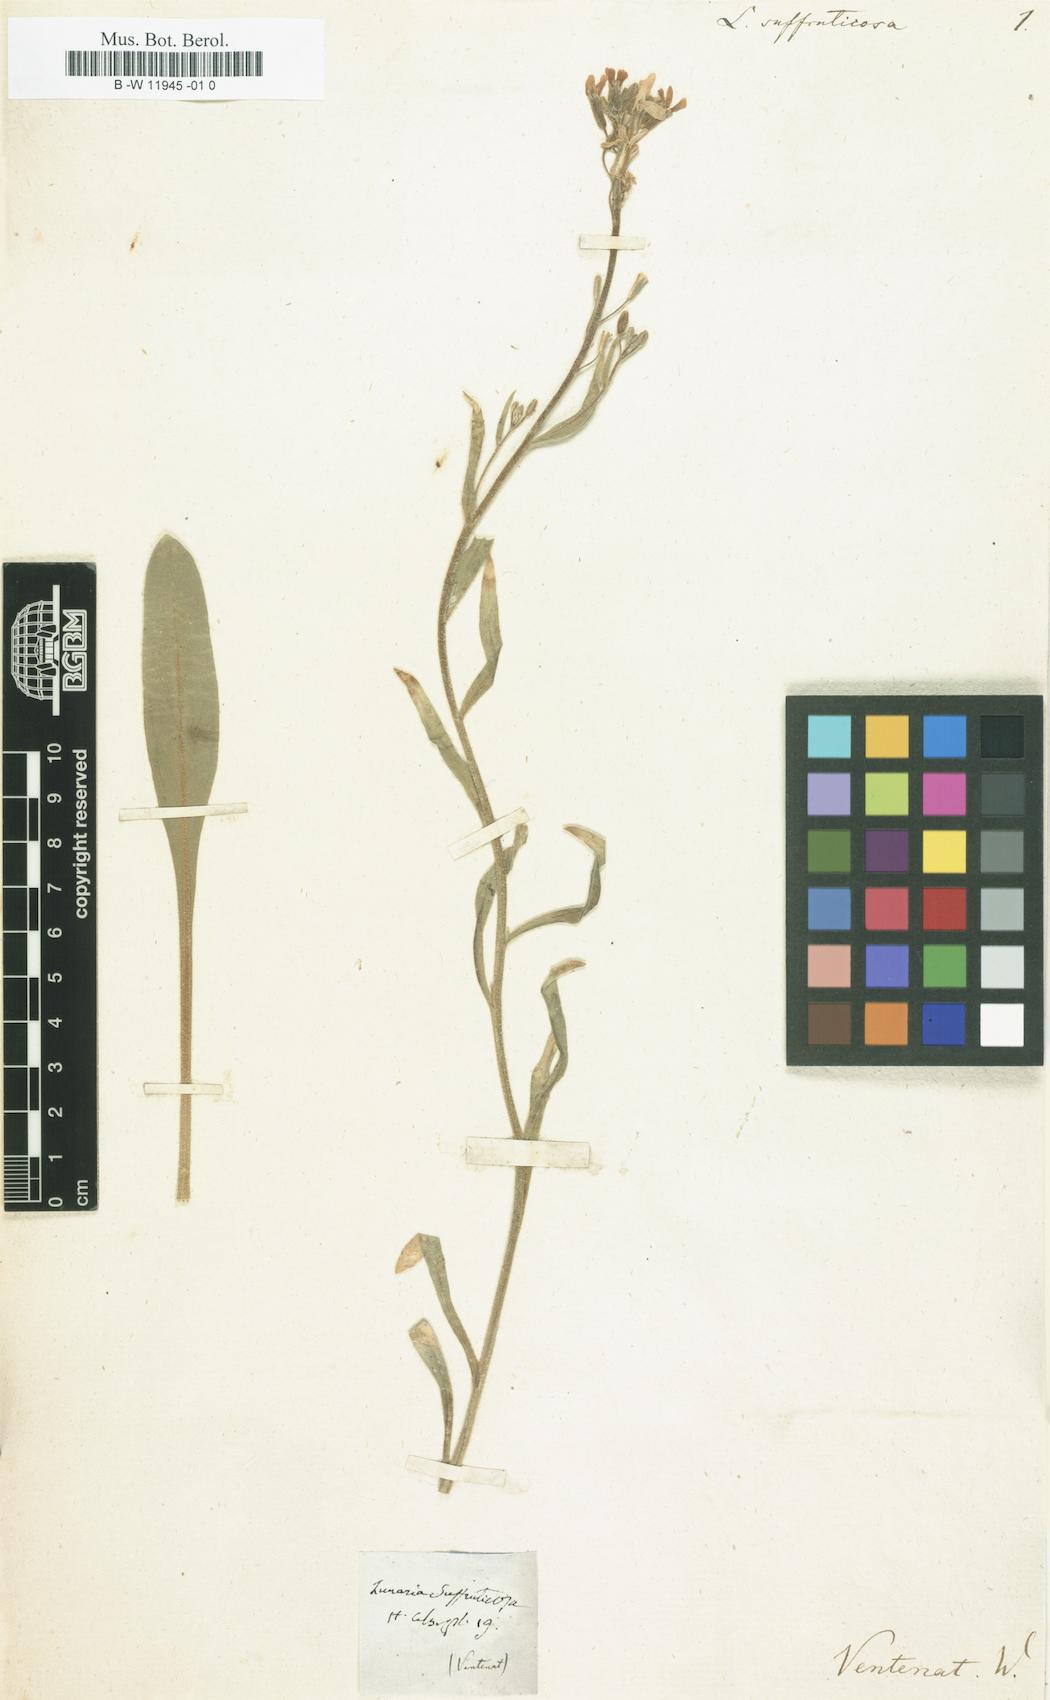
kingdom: Plantae
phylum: Tracheophyta
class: Magnoliopsida
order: Brassicales
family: Brassicaceae
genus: Brachypus
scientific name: Brachypus suffruticosus
